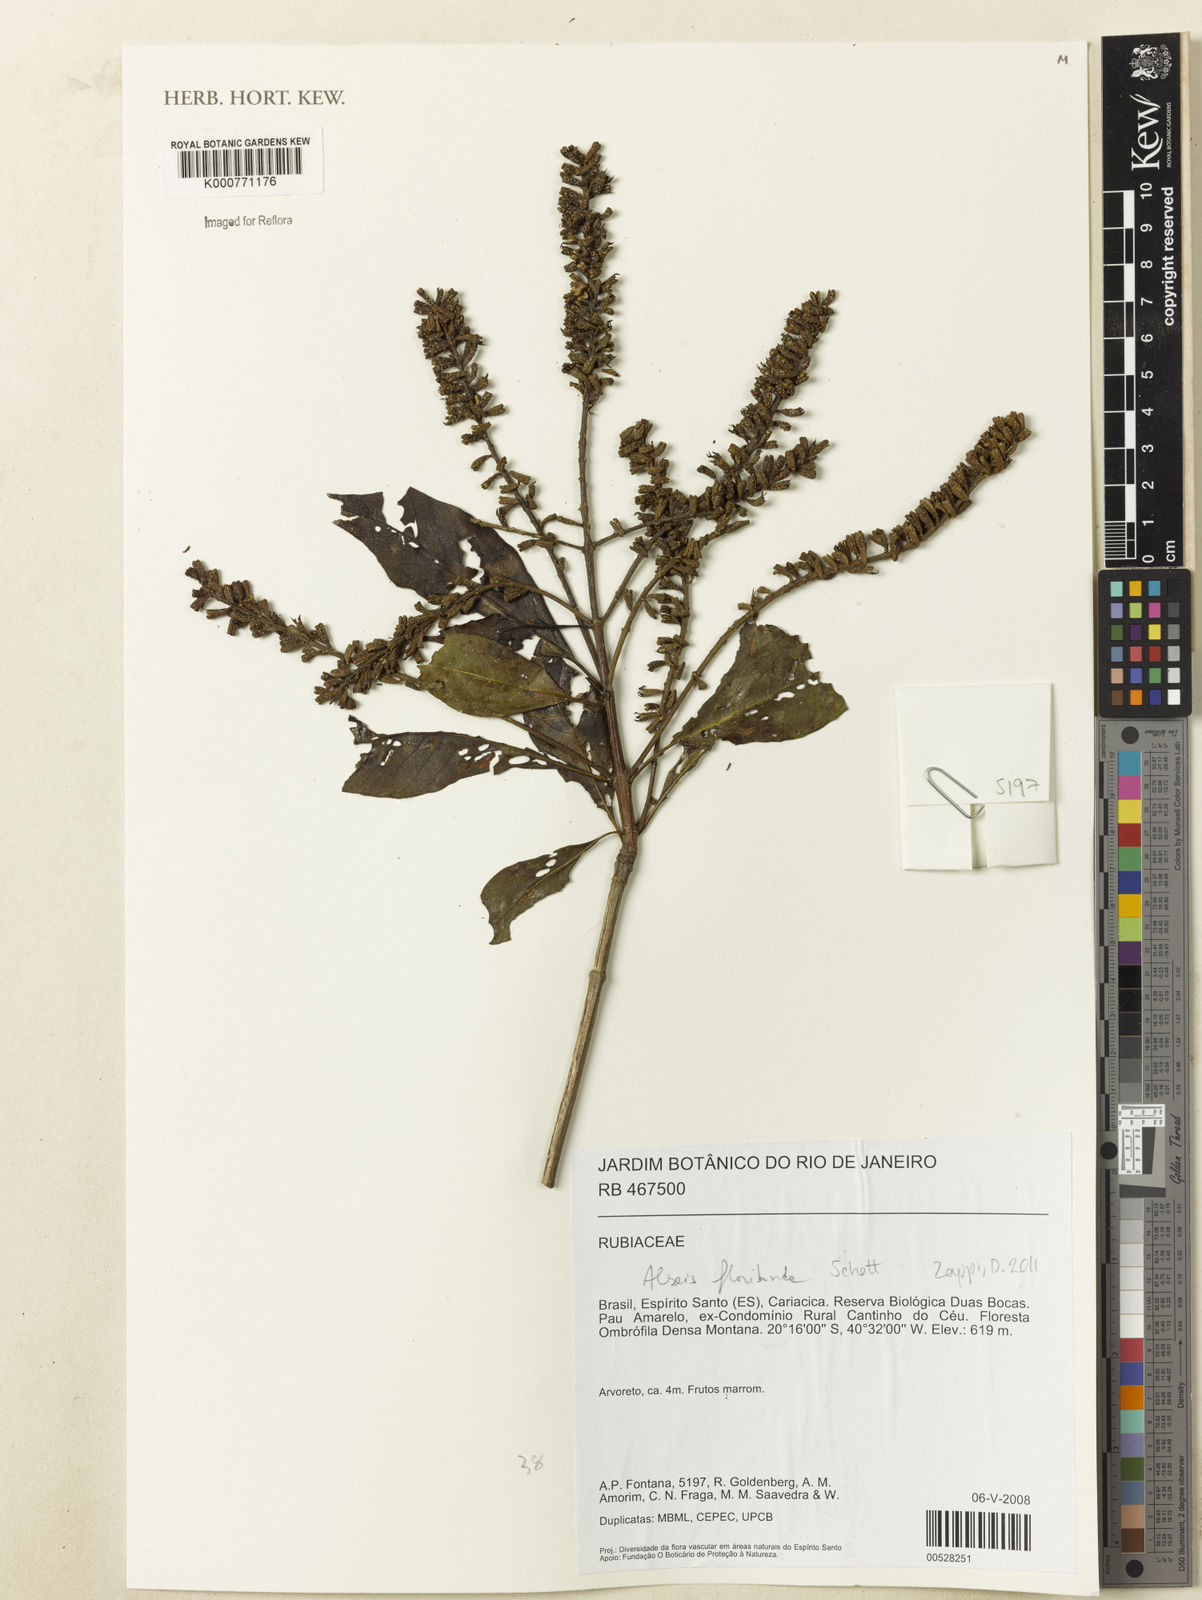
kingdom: Plantae
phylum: Tracheophyta
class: Magnoliopsida
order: Gentianales
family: Rubiaceae
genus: Alseis
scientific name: Alseis floribunda
